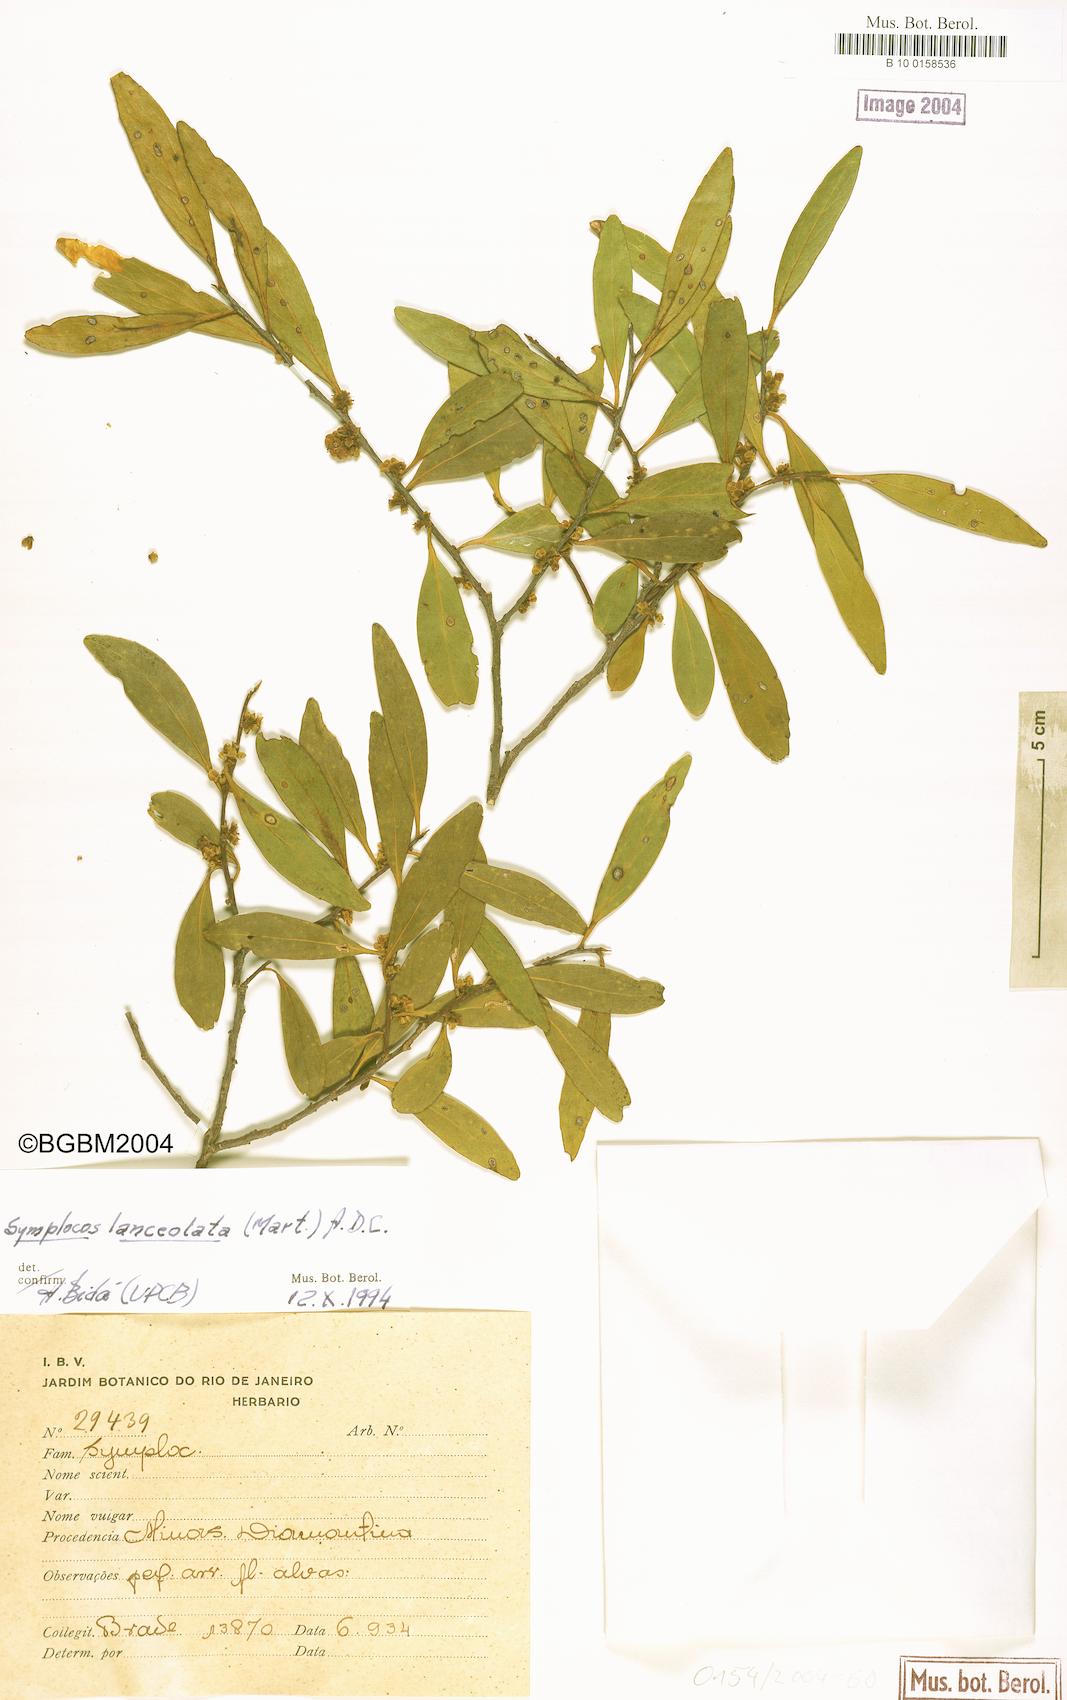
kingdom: Plantae
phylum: Tracheophyta
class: Magnoliopsida
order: Ericales
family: Symplocaceae
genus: Symplocos
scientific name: Symplocos oblongifolia
